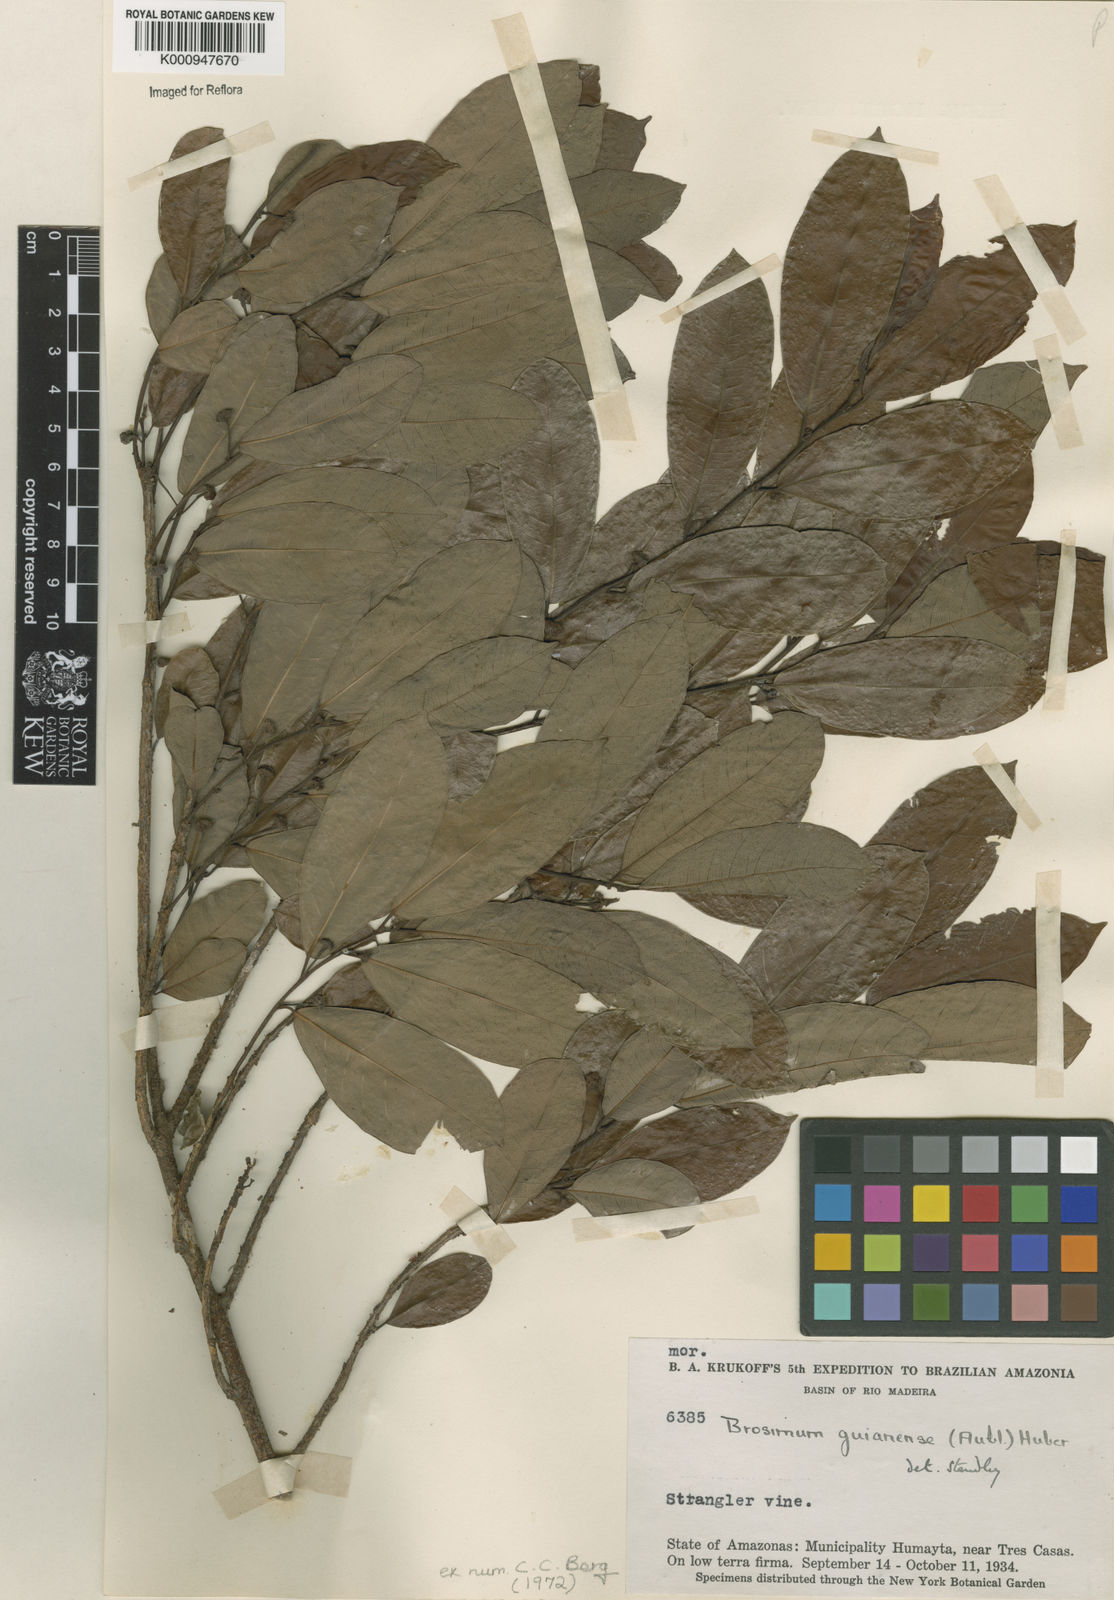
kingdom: Plantae
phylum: Tracheophyta
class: Magnoliopsida
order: Rosales
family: Moraceae
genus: Brosimum
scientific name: Brosimum
